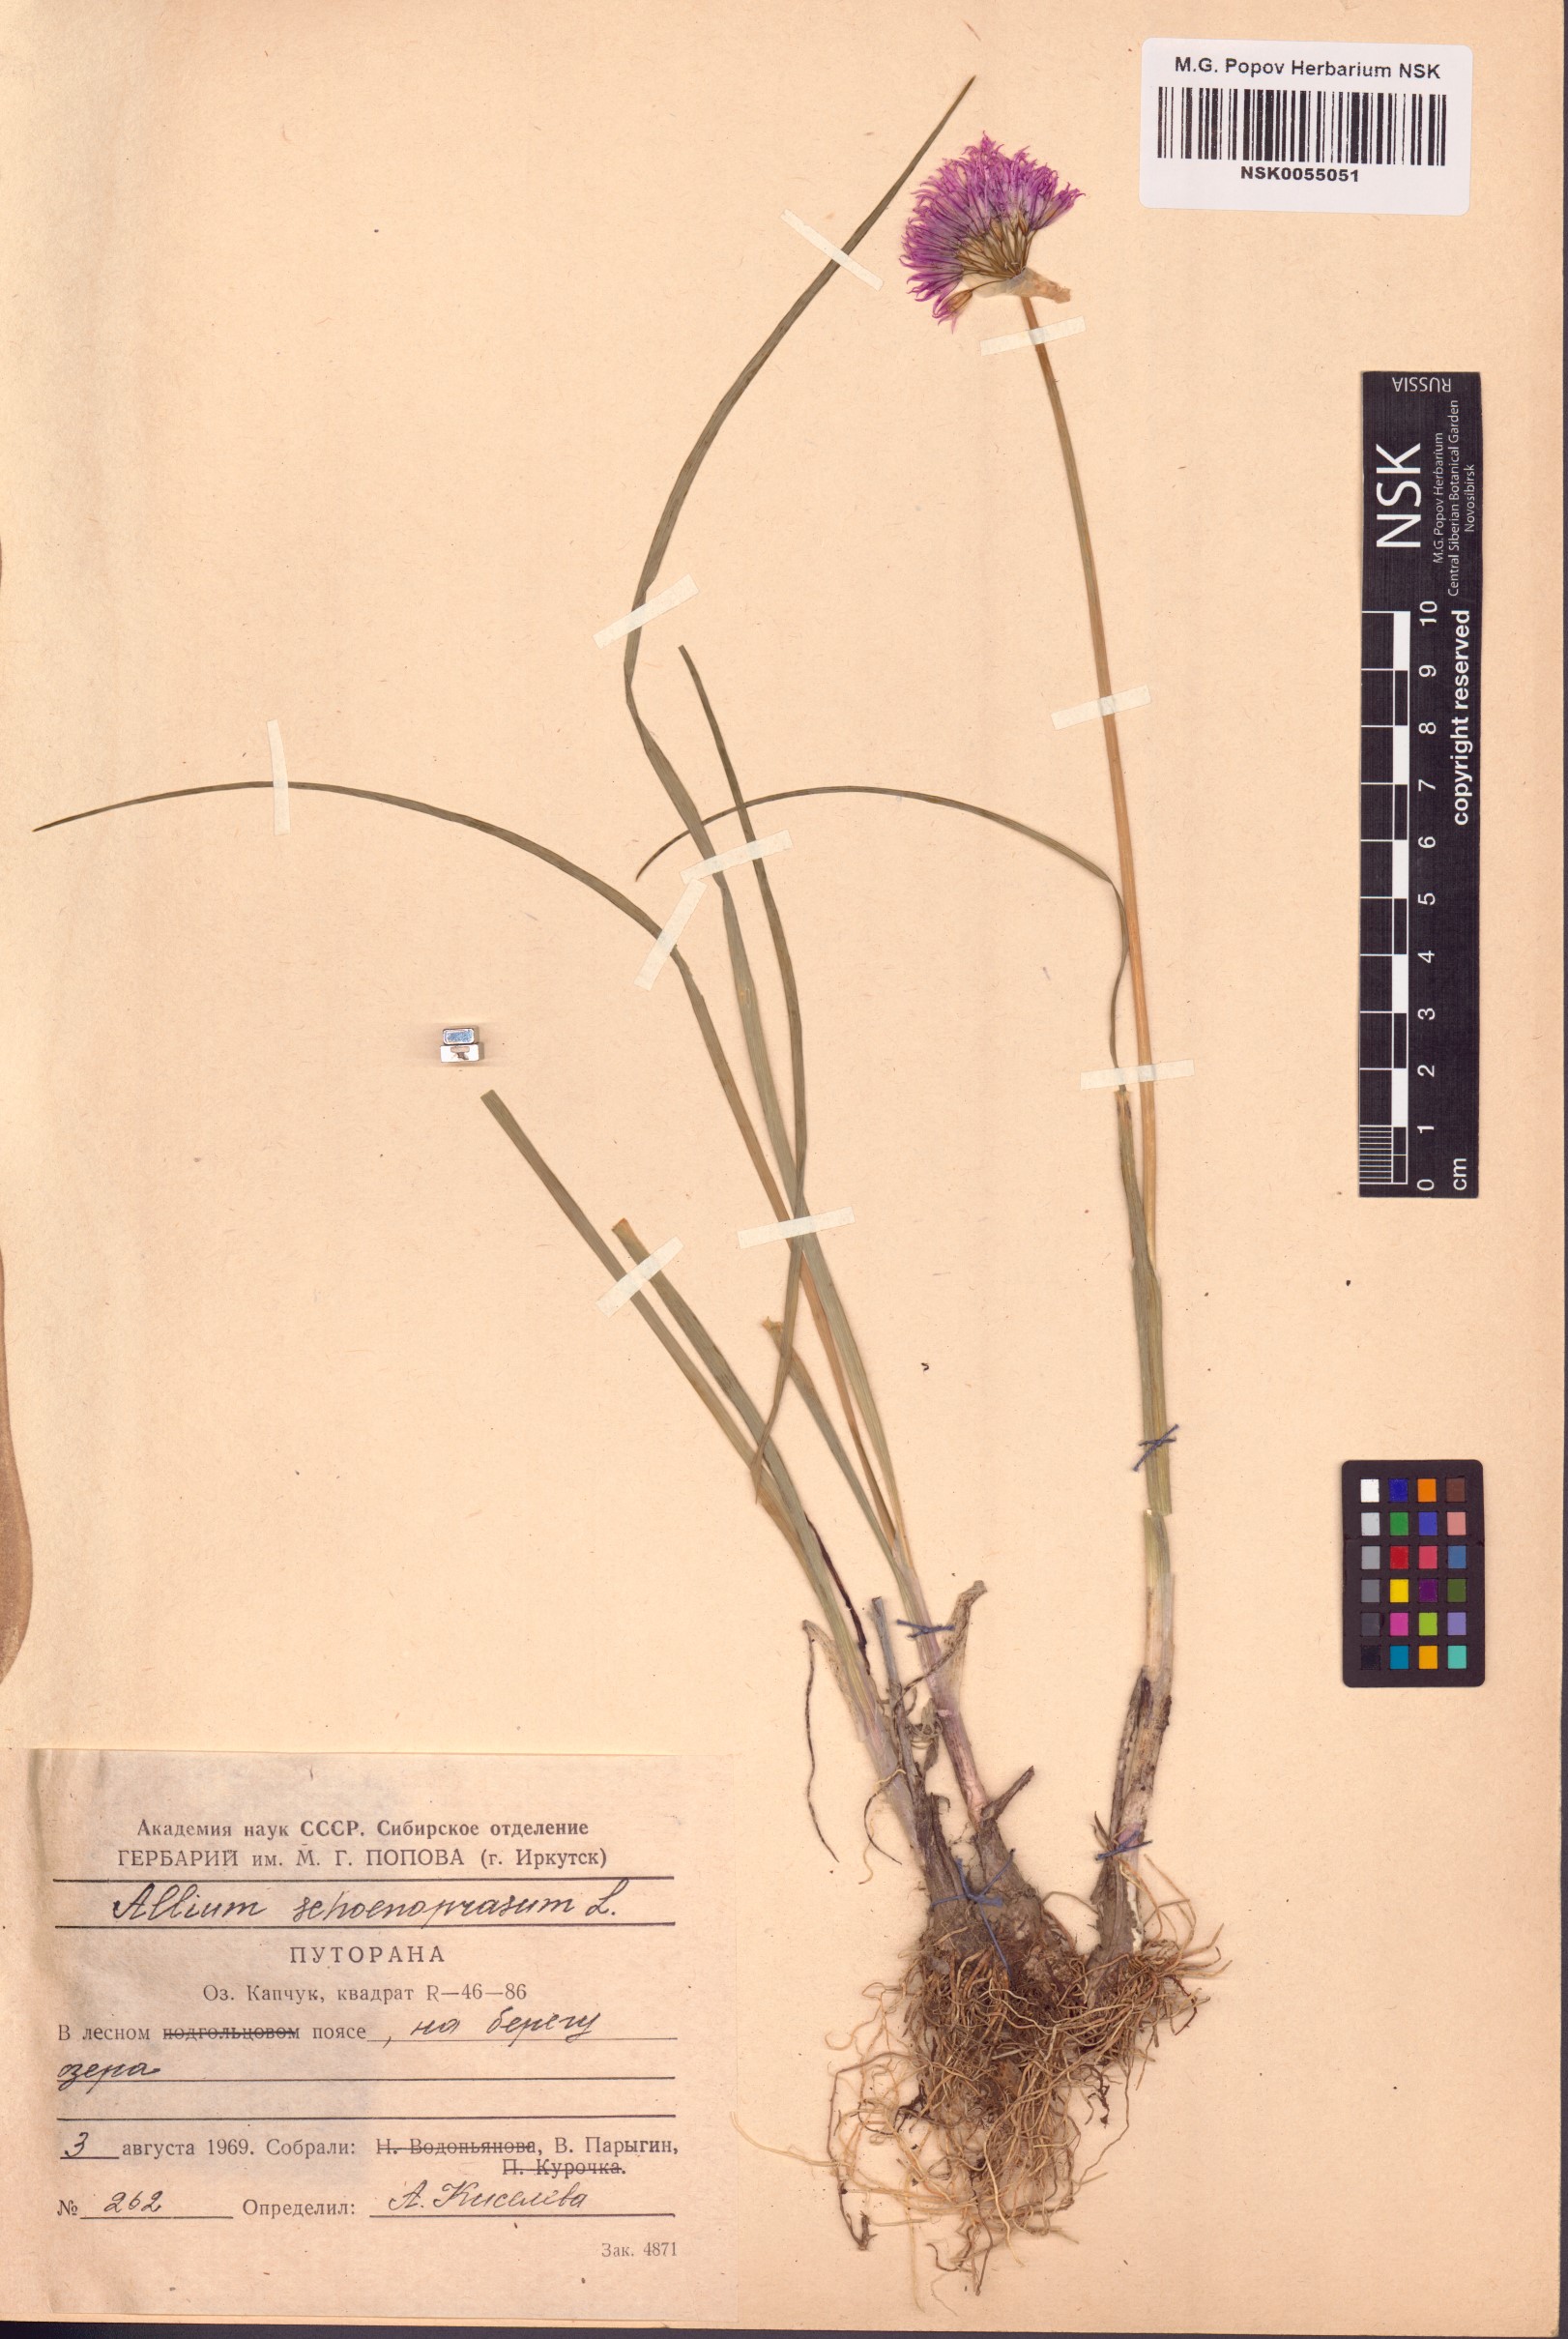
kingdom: Plantae
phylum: Tracheophyta
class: Liliopsida
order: Asparagales
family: Amaryllidaceae
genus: Allium
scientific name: Allium schoenoprasum
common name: Chives
